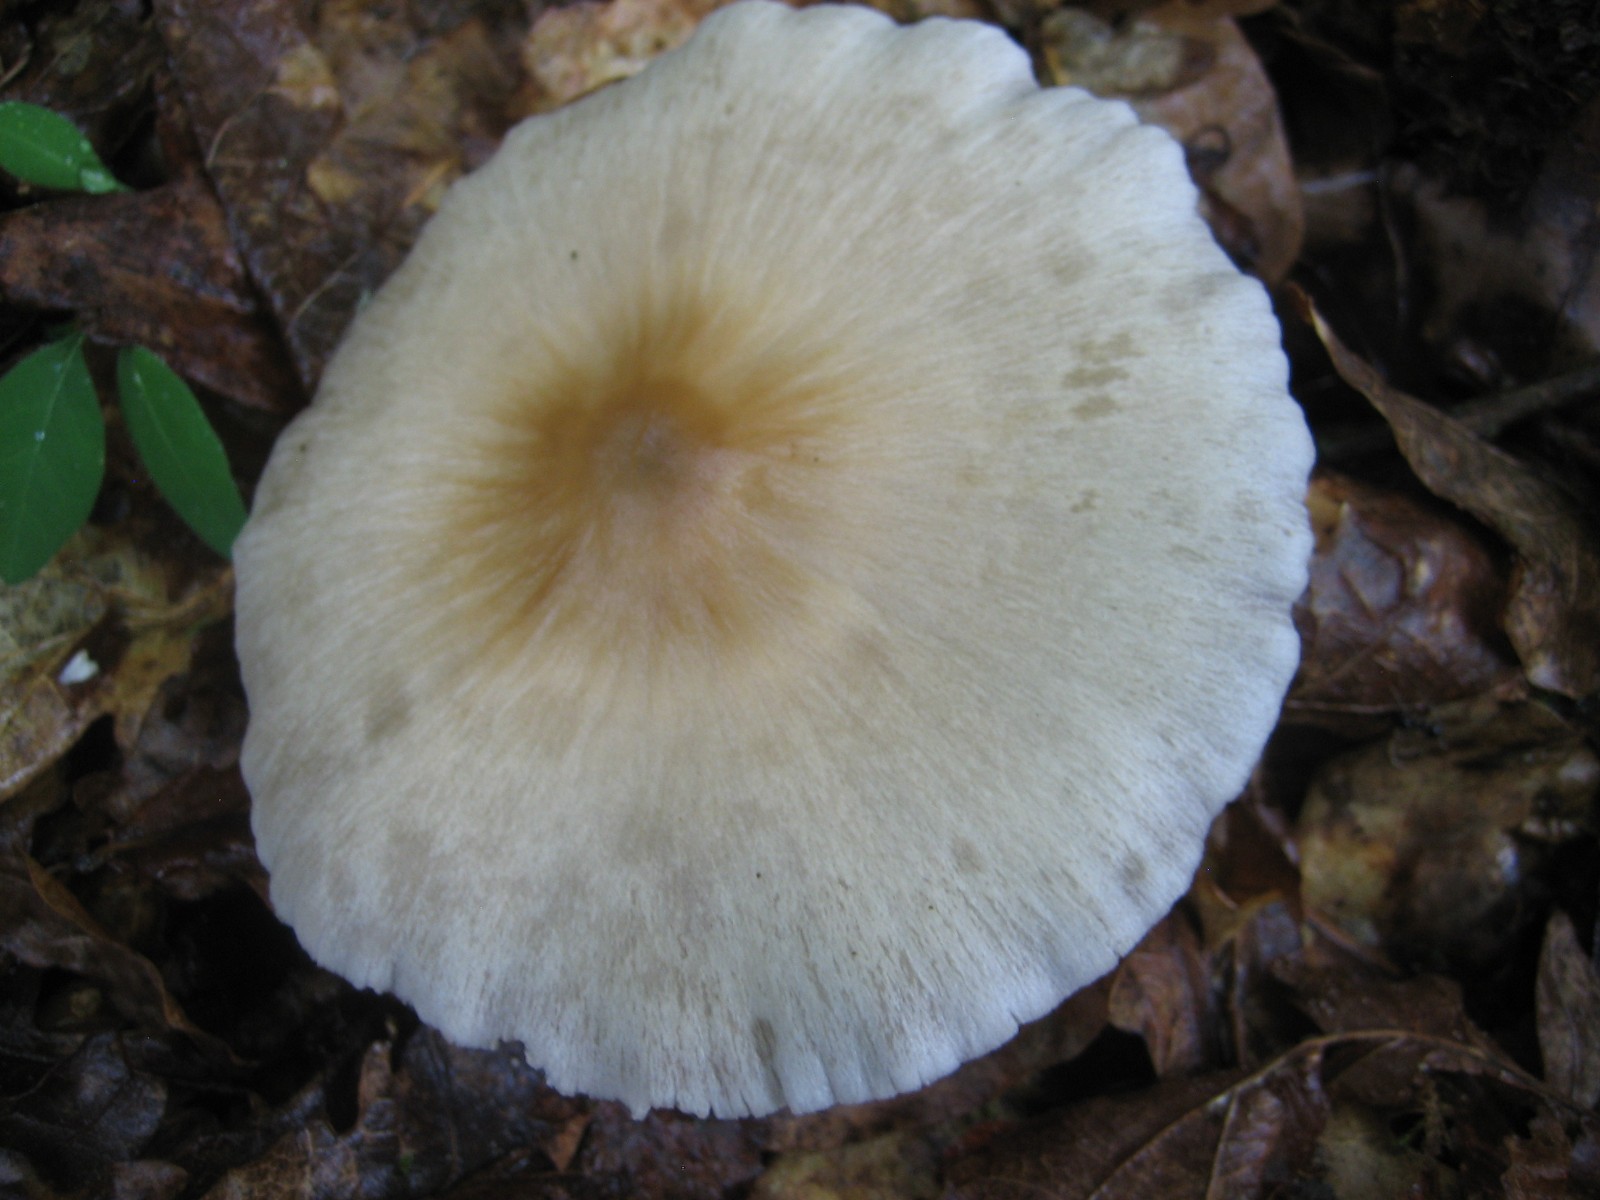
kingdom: Fungi
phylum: Basidiomycota
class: Agaricomycetes
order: Agaricales
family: Psathyrellaceae
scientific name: Psathyrellaceae
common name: mørkhatfamilien
